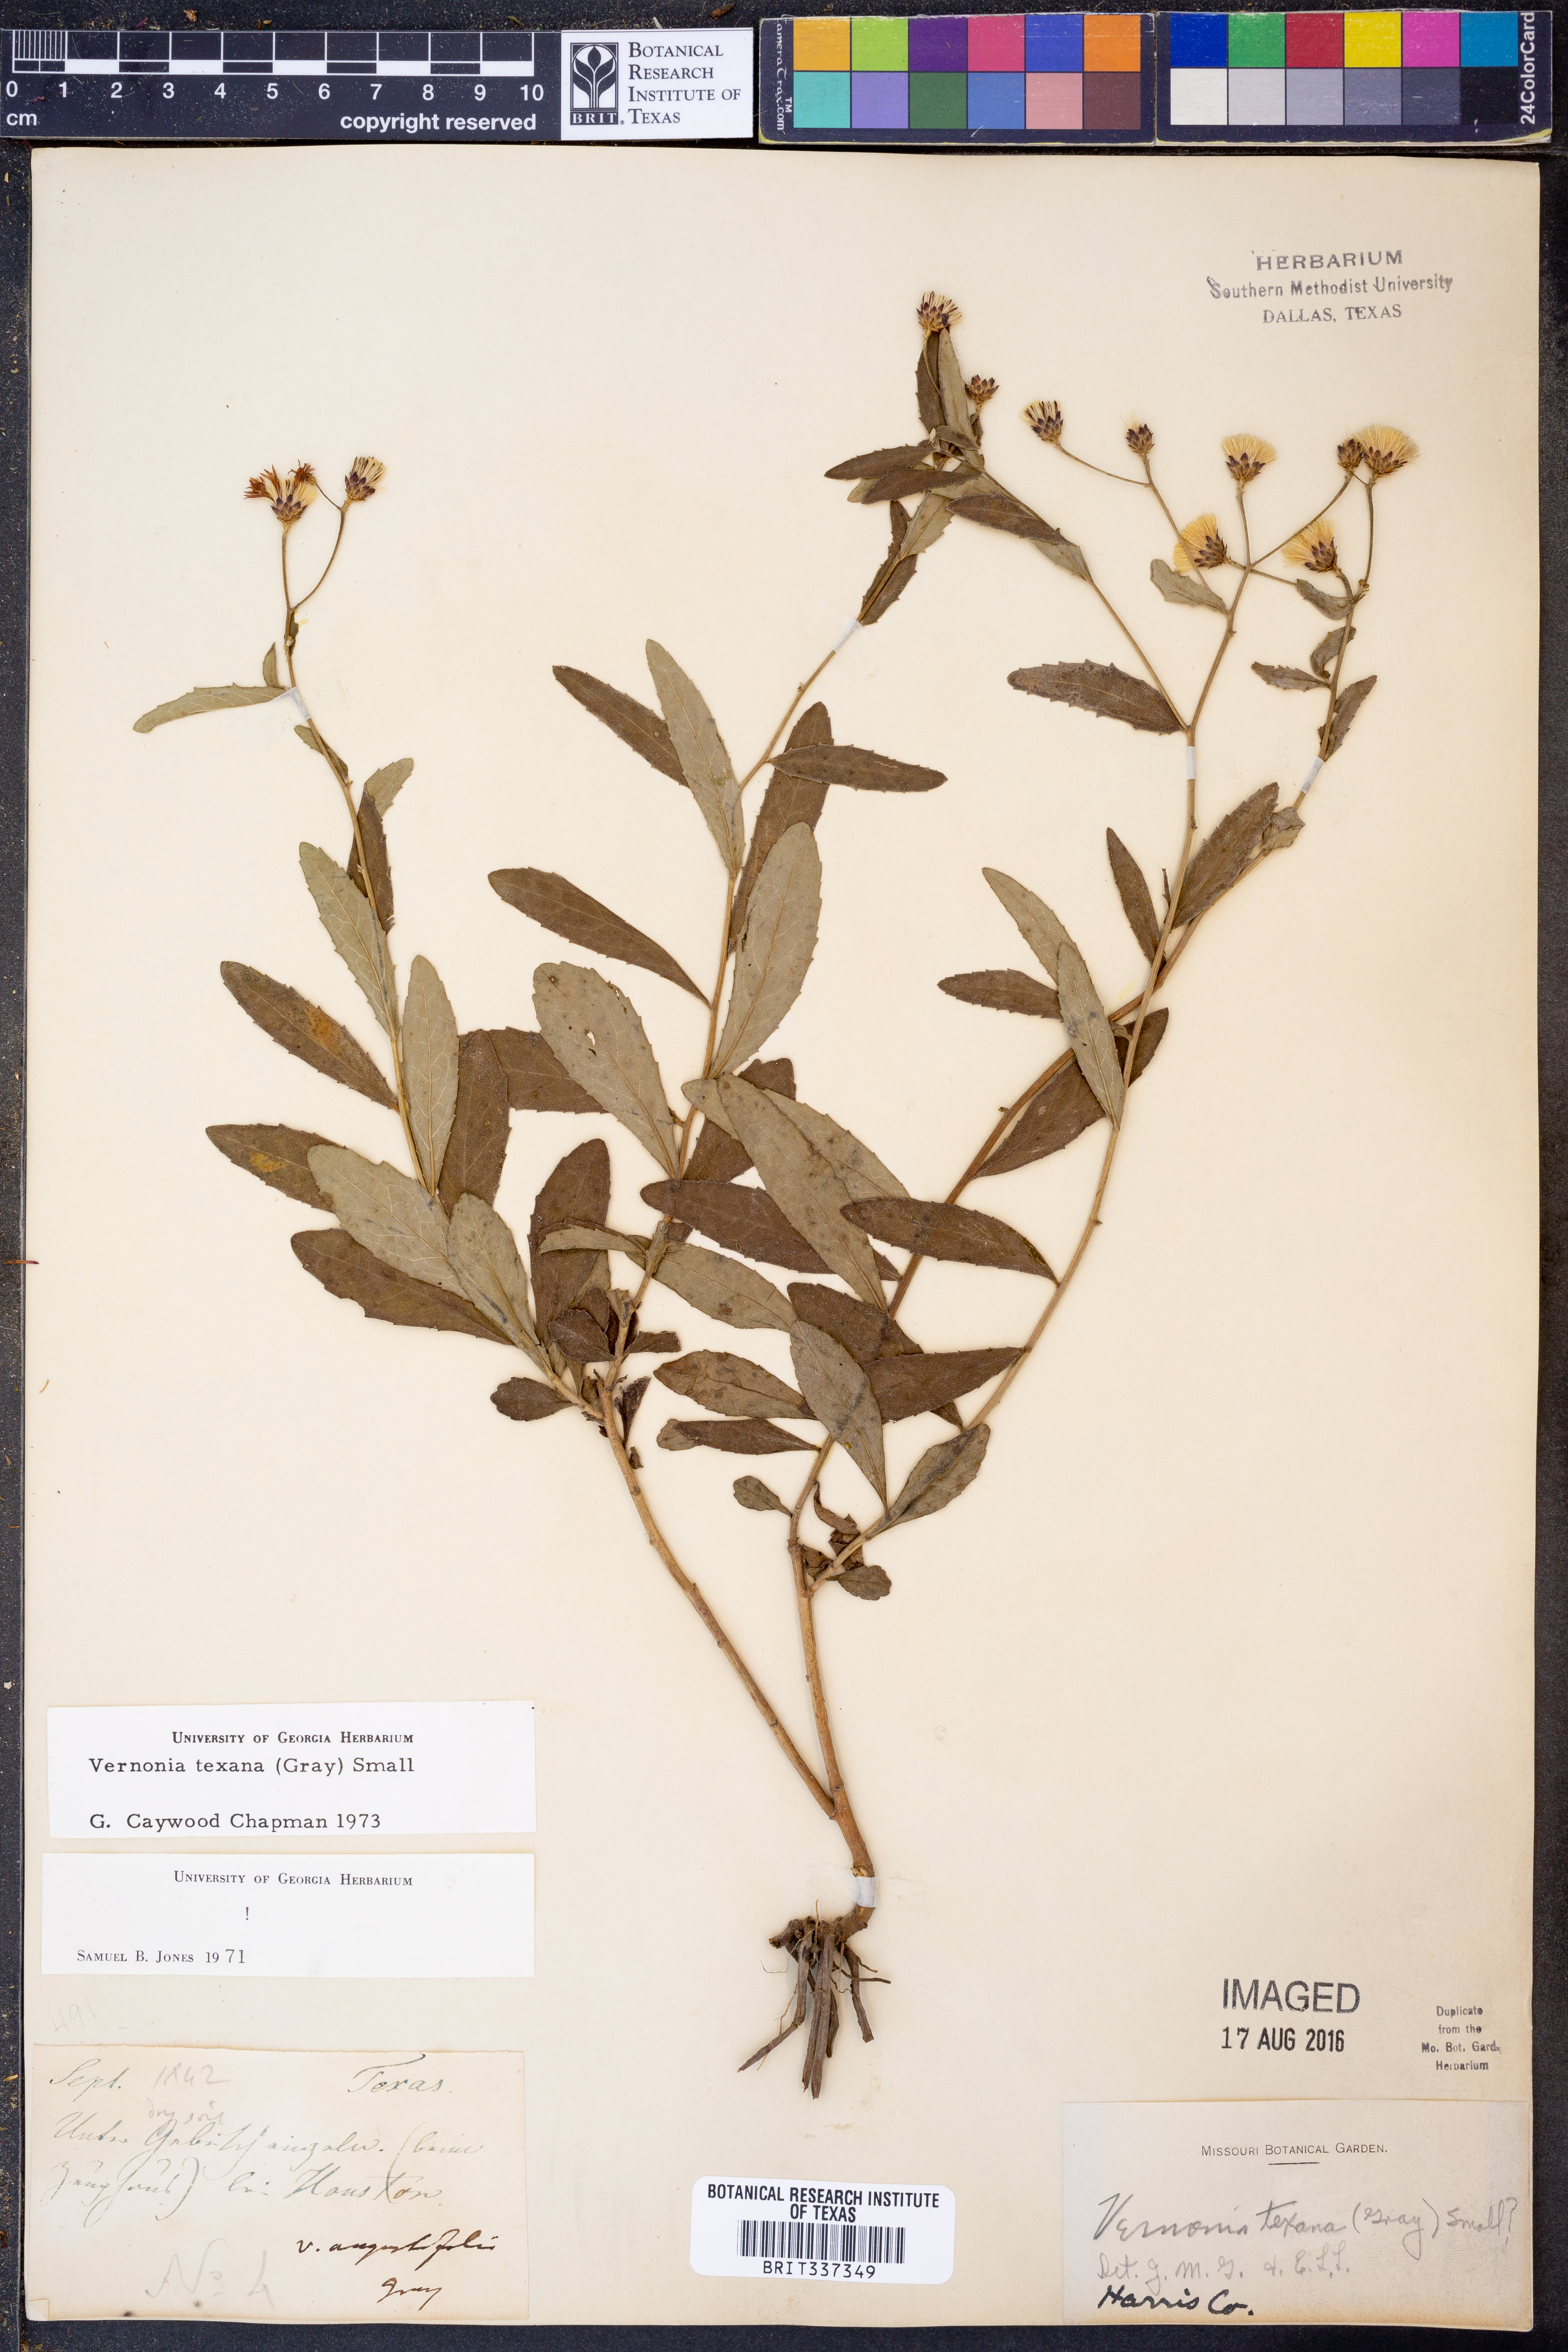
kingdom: Plantae
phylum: Tracheophyta
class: Magnoliopsida
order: Asterales
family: Asteraceae
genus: Vernonia
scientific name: Vernonia texana
